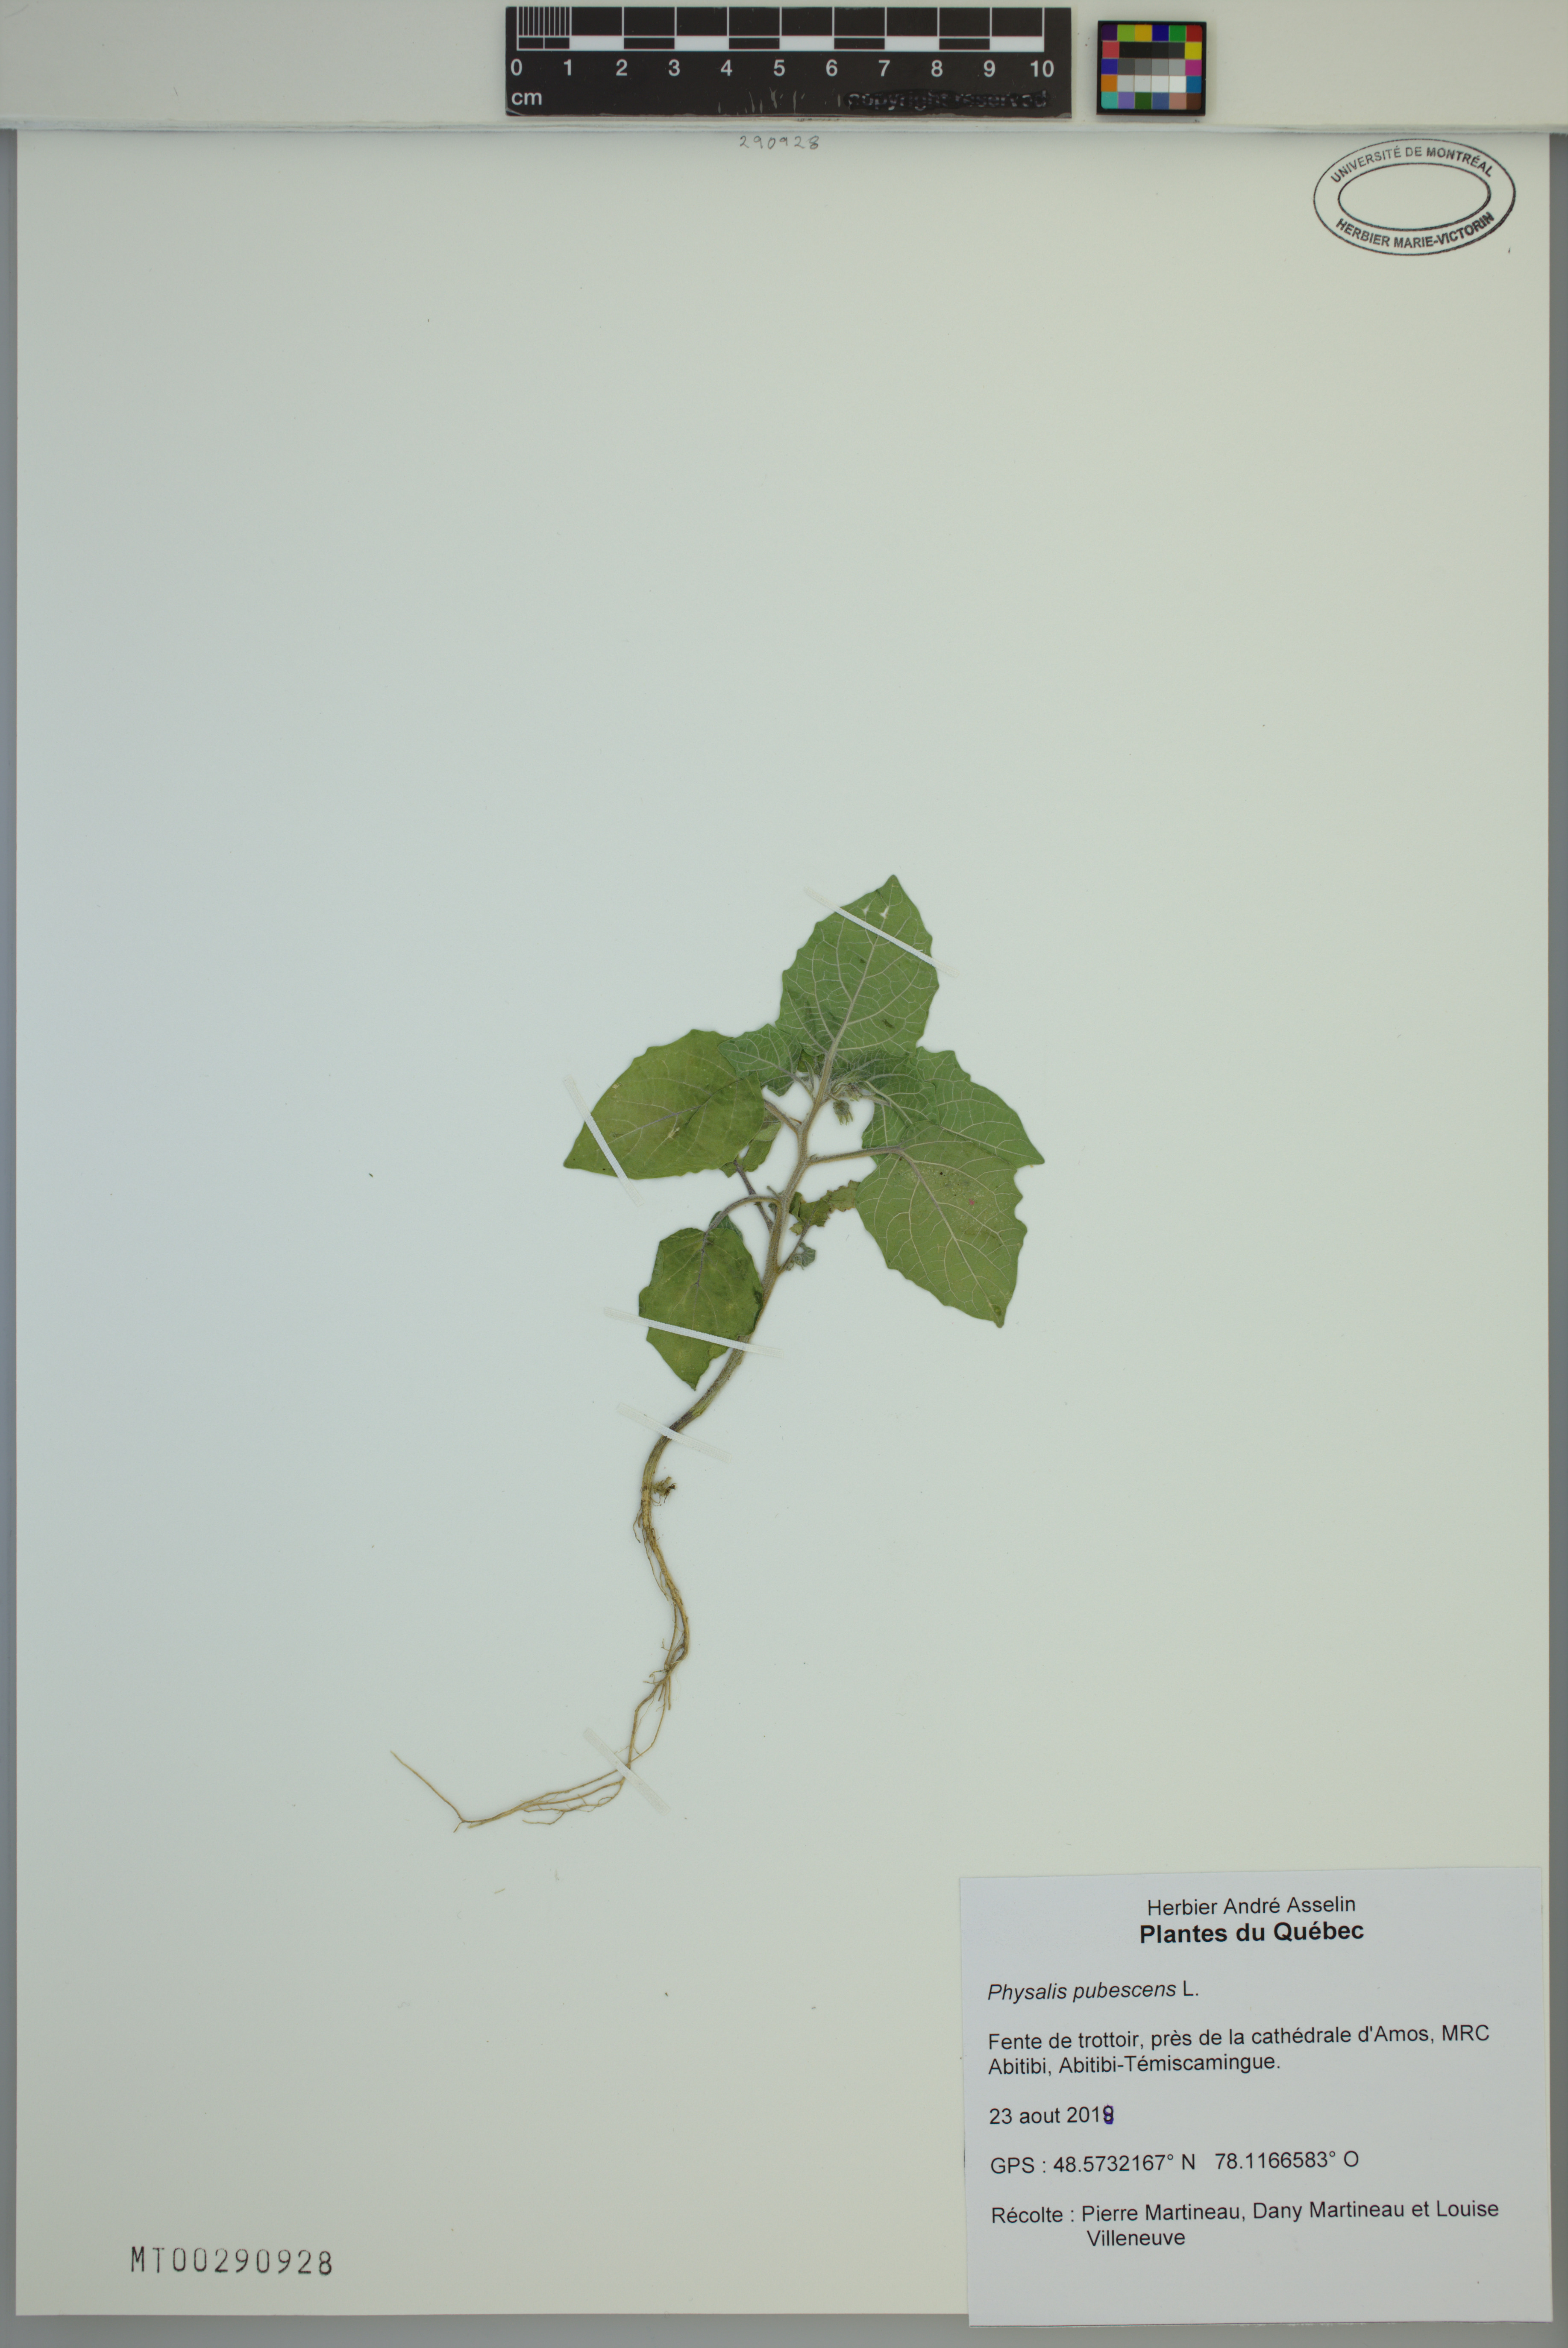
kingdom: Plantae
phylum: Tracheophyta
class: Magnoliopsida
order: Solanales
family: Solanaceae
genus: Physalis
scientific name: Physalis pubescens
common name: Downy ground-cherry
